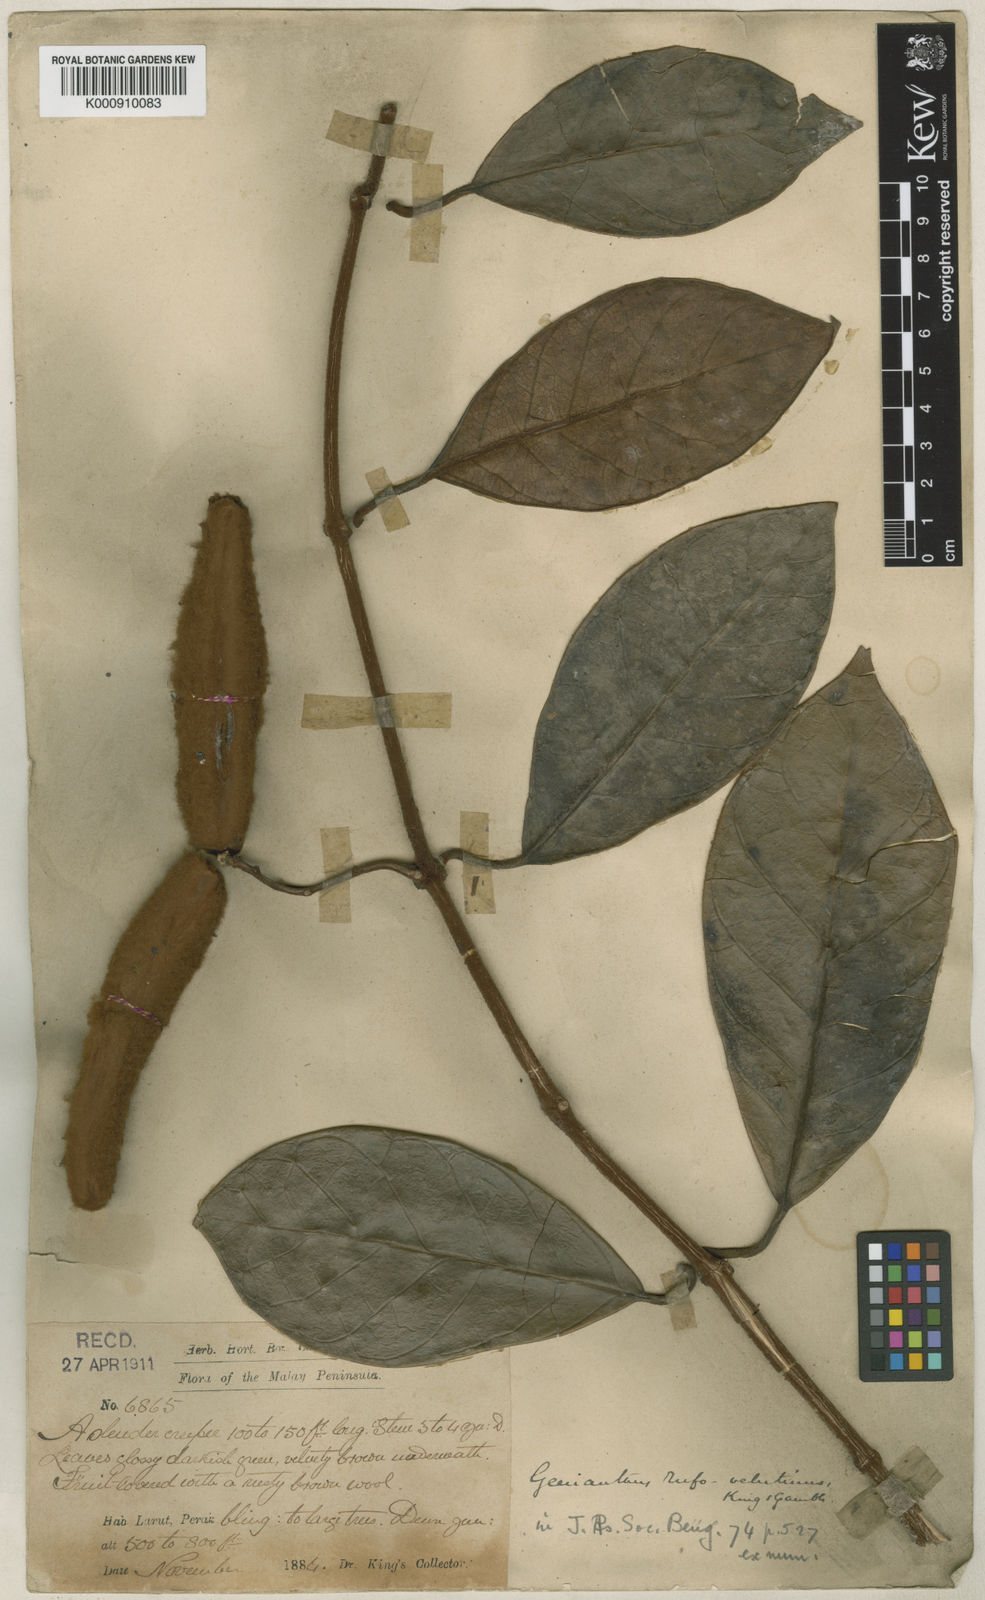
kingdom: Plantae
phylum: Tracheophyta
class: Magnoliopsida
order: Gentianales
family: Apocynaceae
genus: Secamone
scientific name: Secamone
